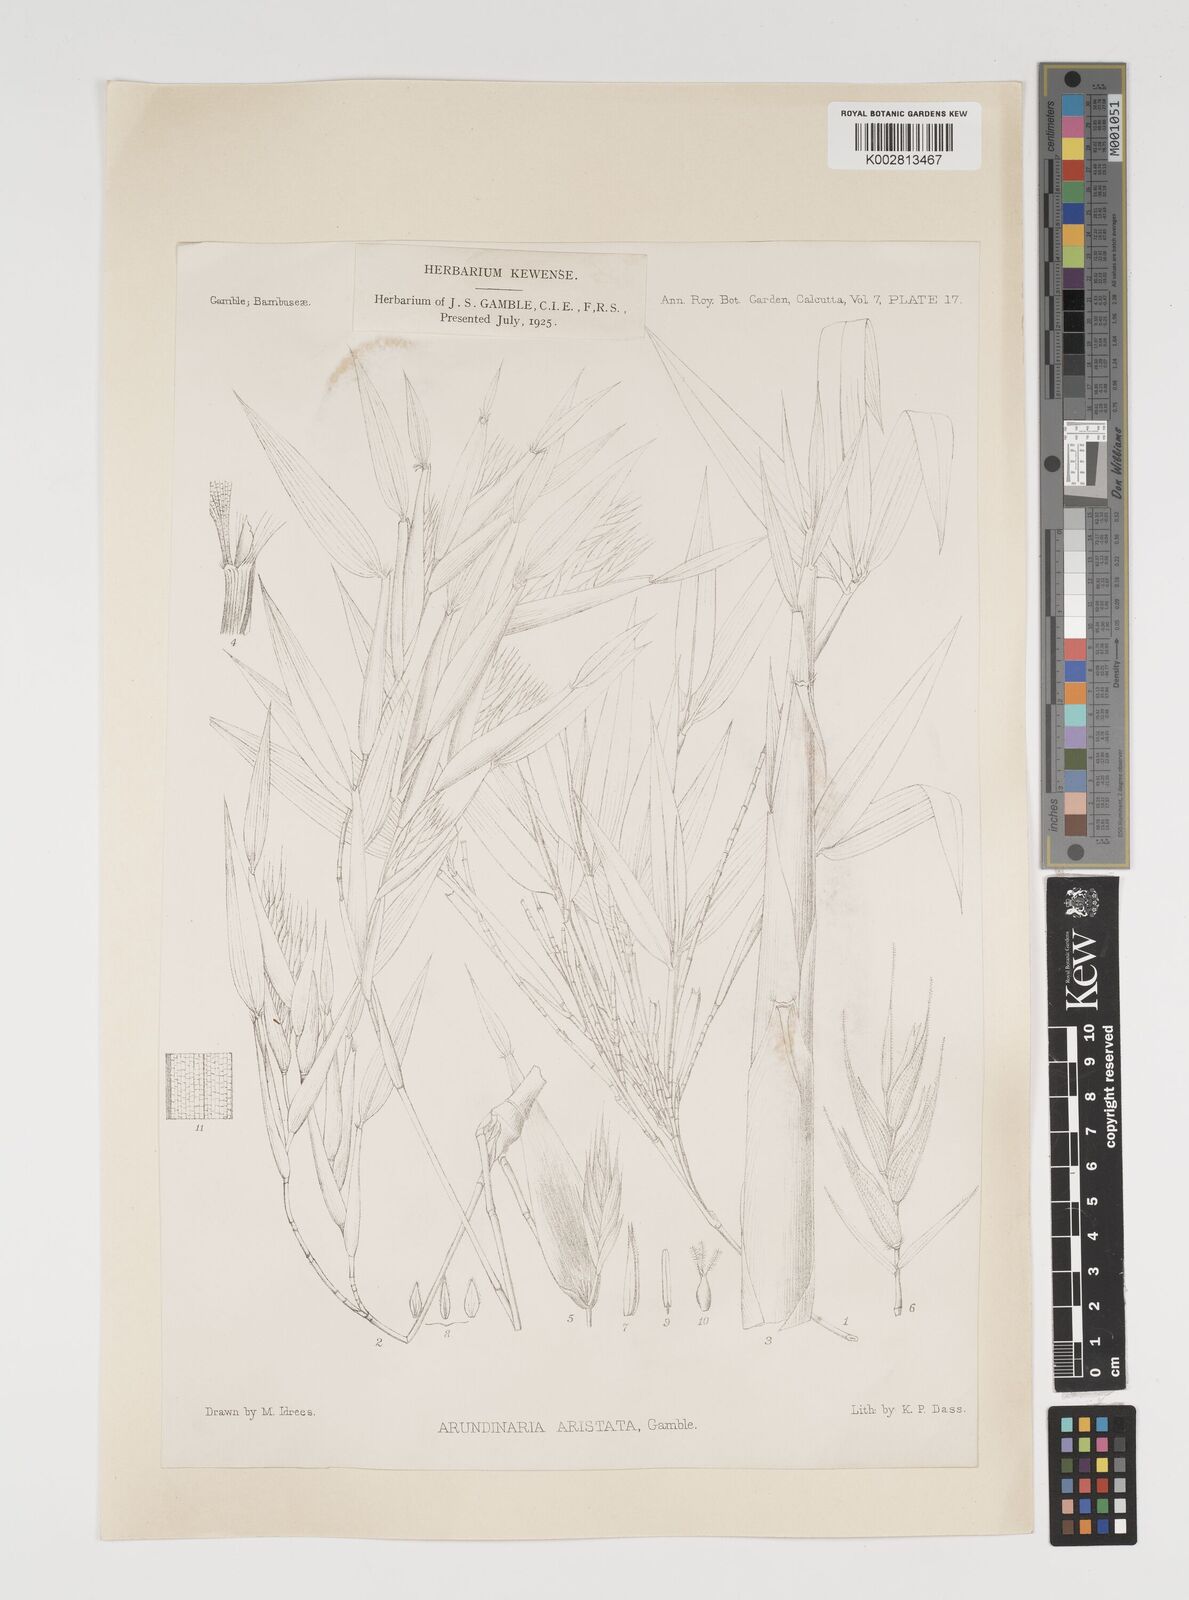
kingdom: Plantae
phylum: Tracheophyta
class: Liliopsida
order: Poales
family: Poaceae
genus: Thamnocalamus
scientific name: Thamnocalamus spathiflorus
